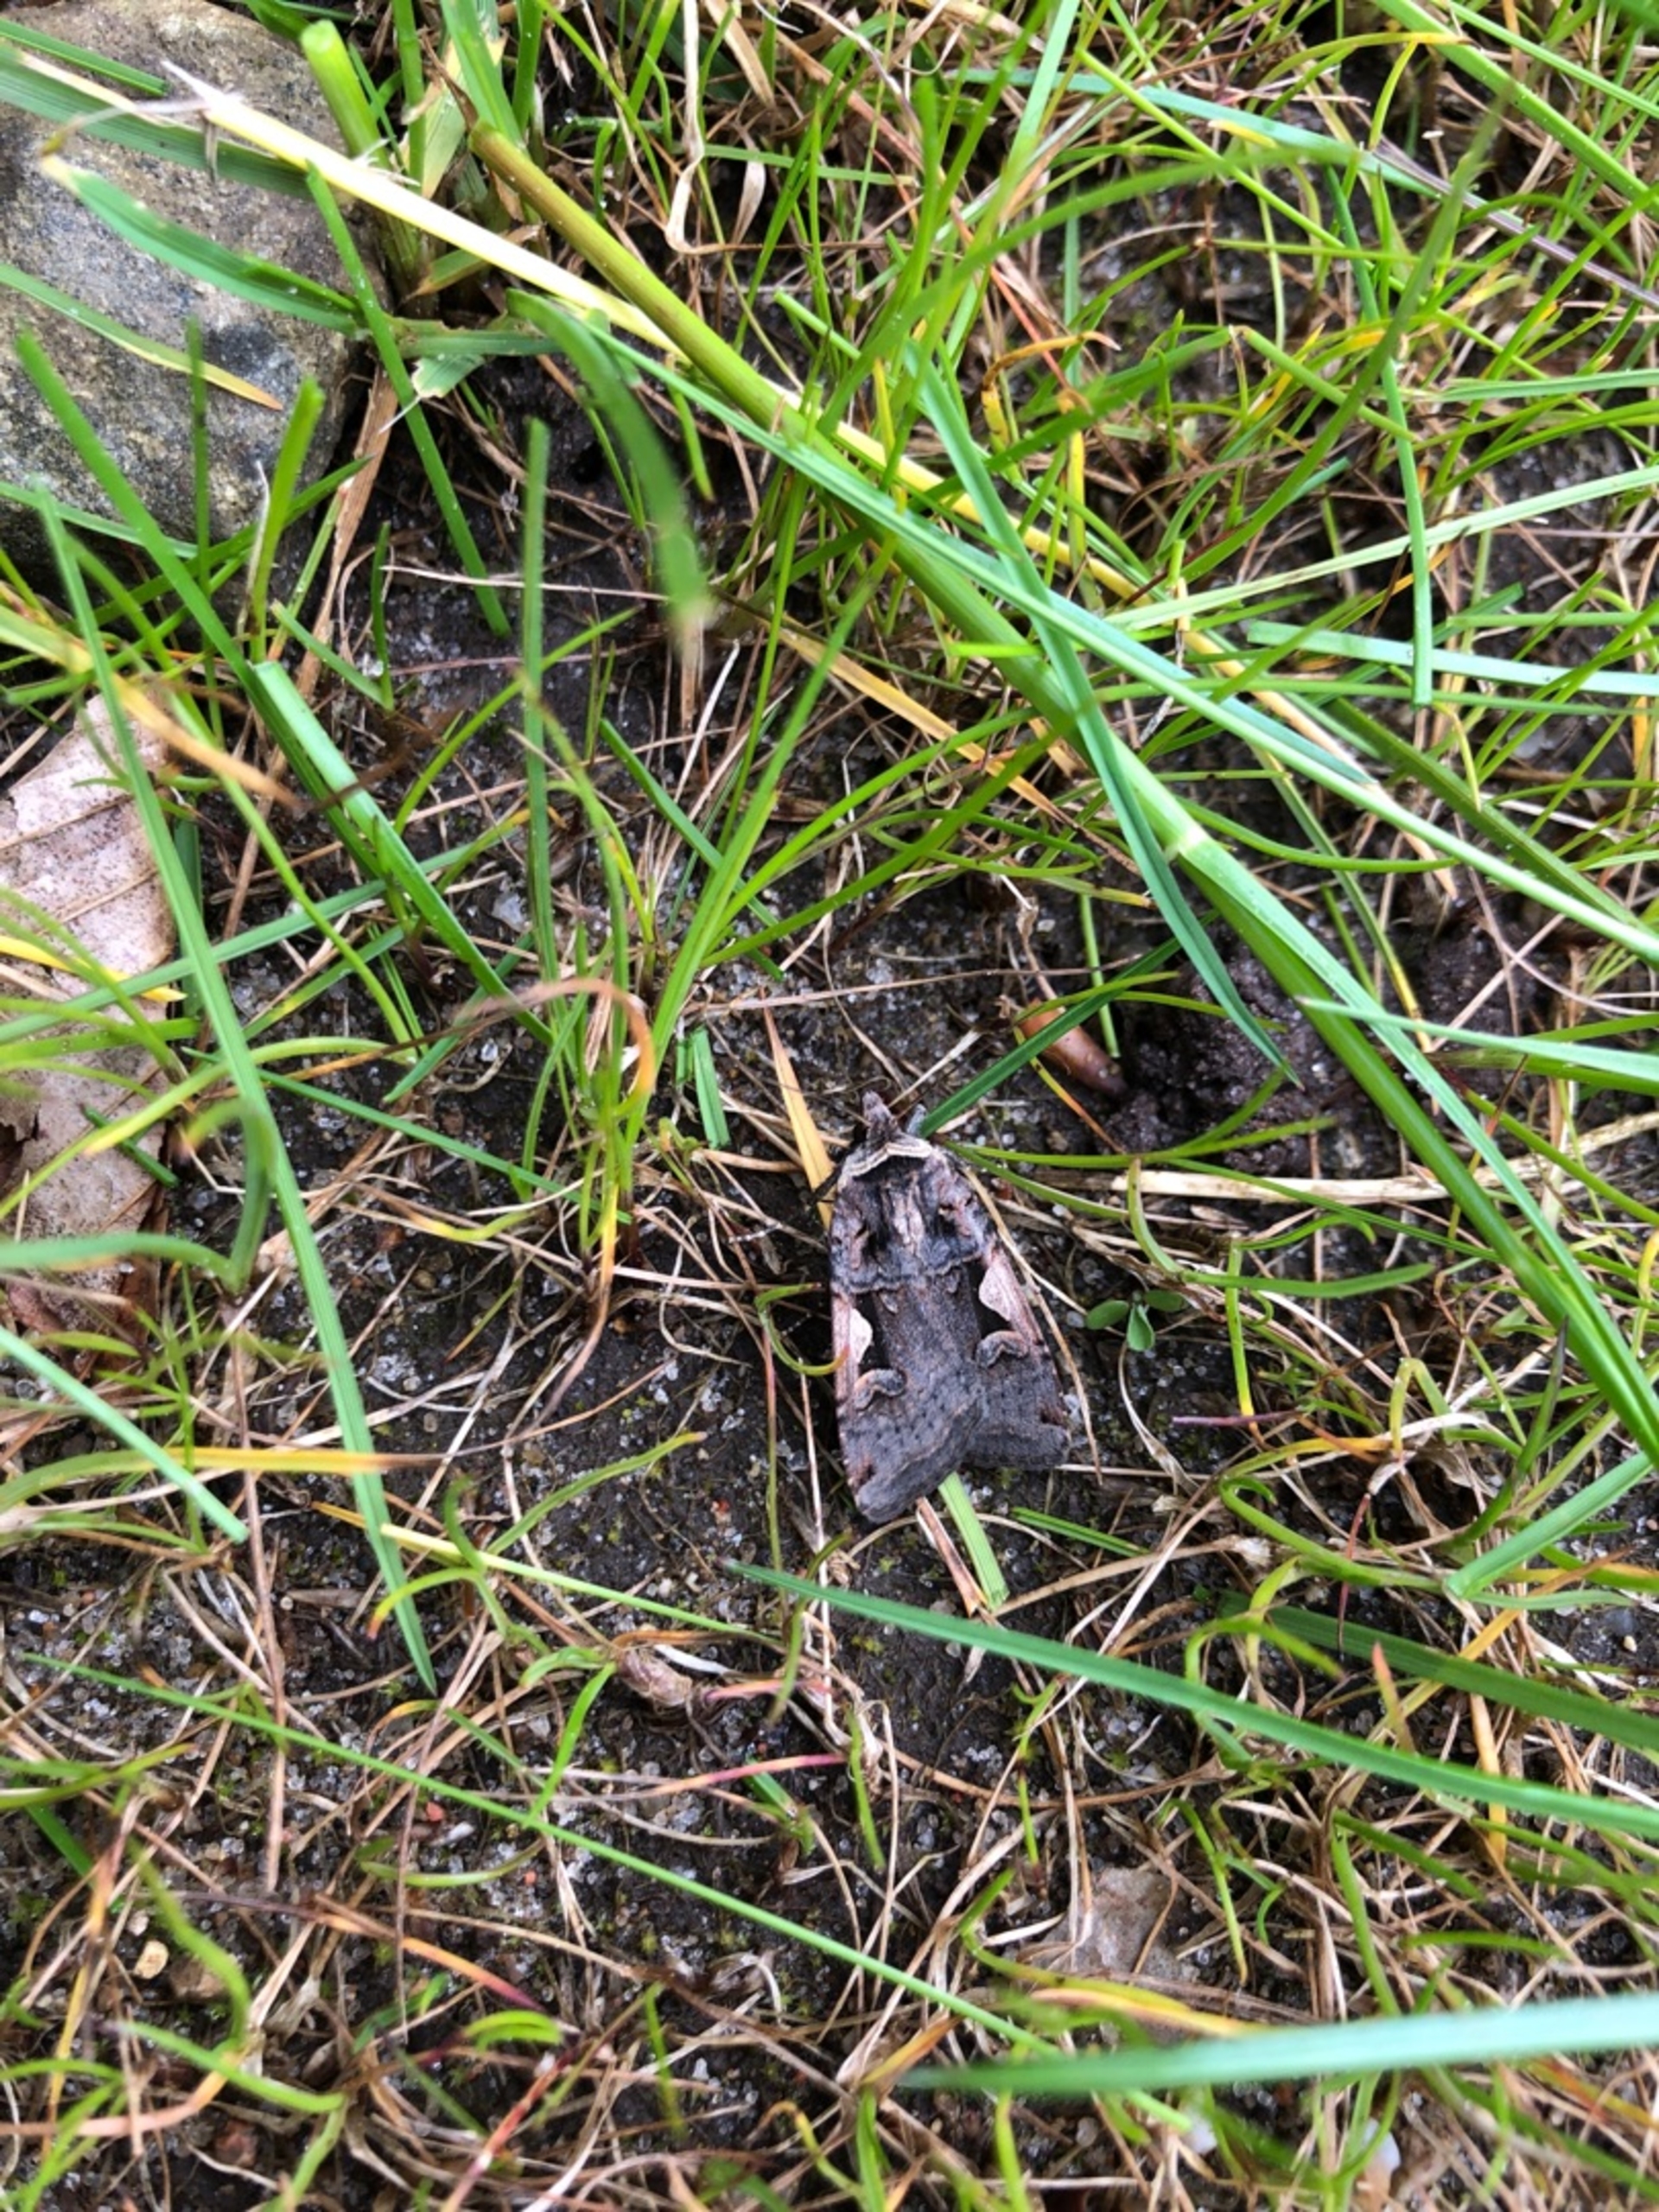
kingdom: Animalia
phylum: Arthropoda
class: Insecta
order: Lepidoptera
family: Noctuidae
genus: Xestia
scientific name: Xestia c-nigrum
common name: Det sorte c
